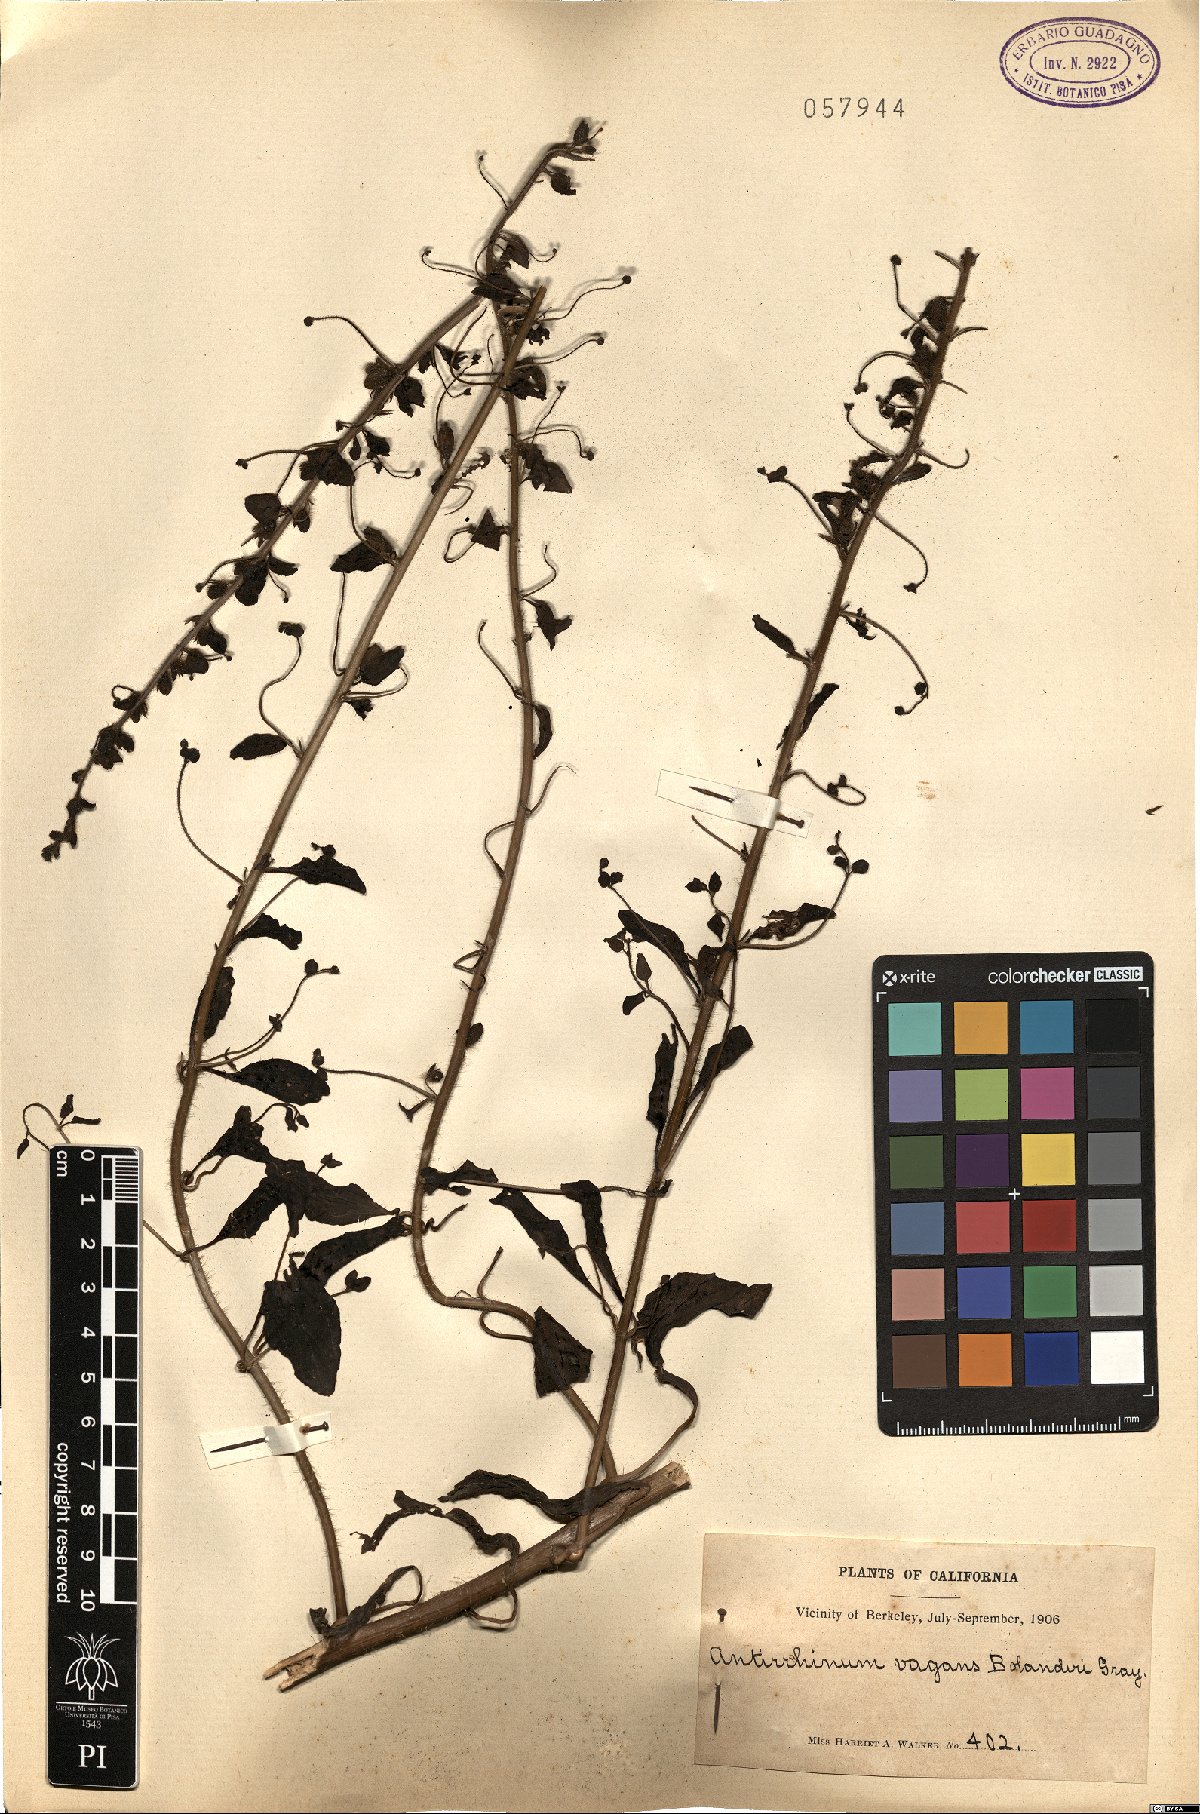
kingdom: Plantae
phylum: Tracheophyta
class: Magnoliopsida
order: Lamiales
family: Scrophulariaceae
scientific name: Scrophulariaceae
